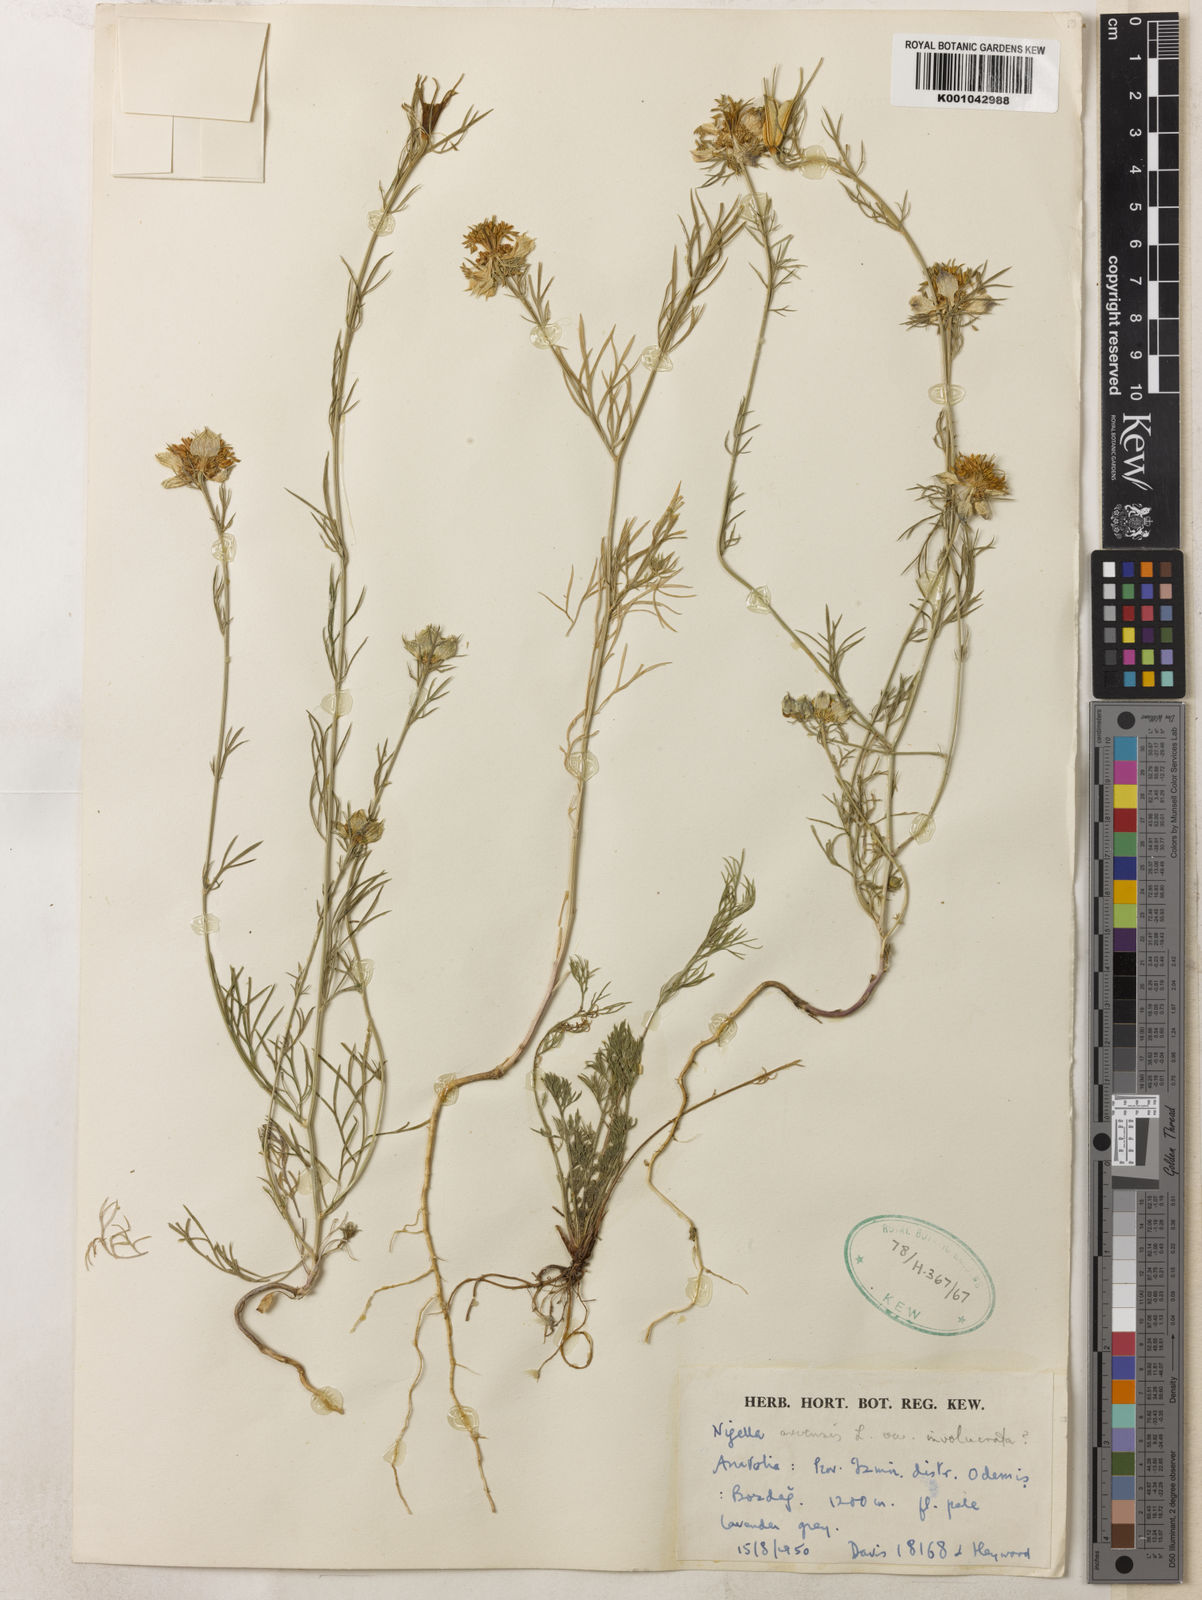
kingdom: Plantae
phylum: Tracheophyta
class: Magnoliopsida
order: Ranunculales
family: Ranunculaceae
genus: Nigella
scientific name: Nigella arvensis
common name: Wild fennel-flower
